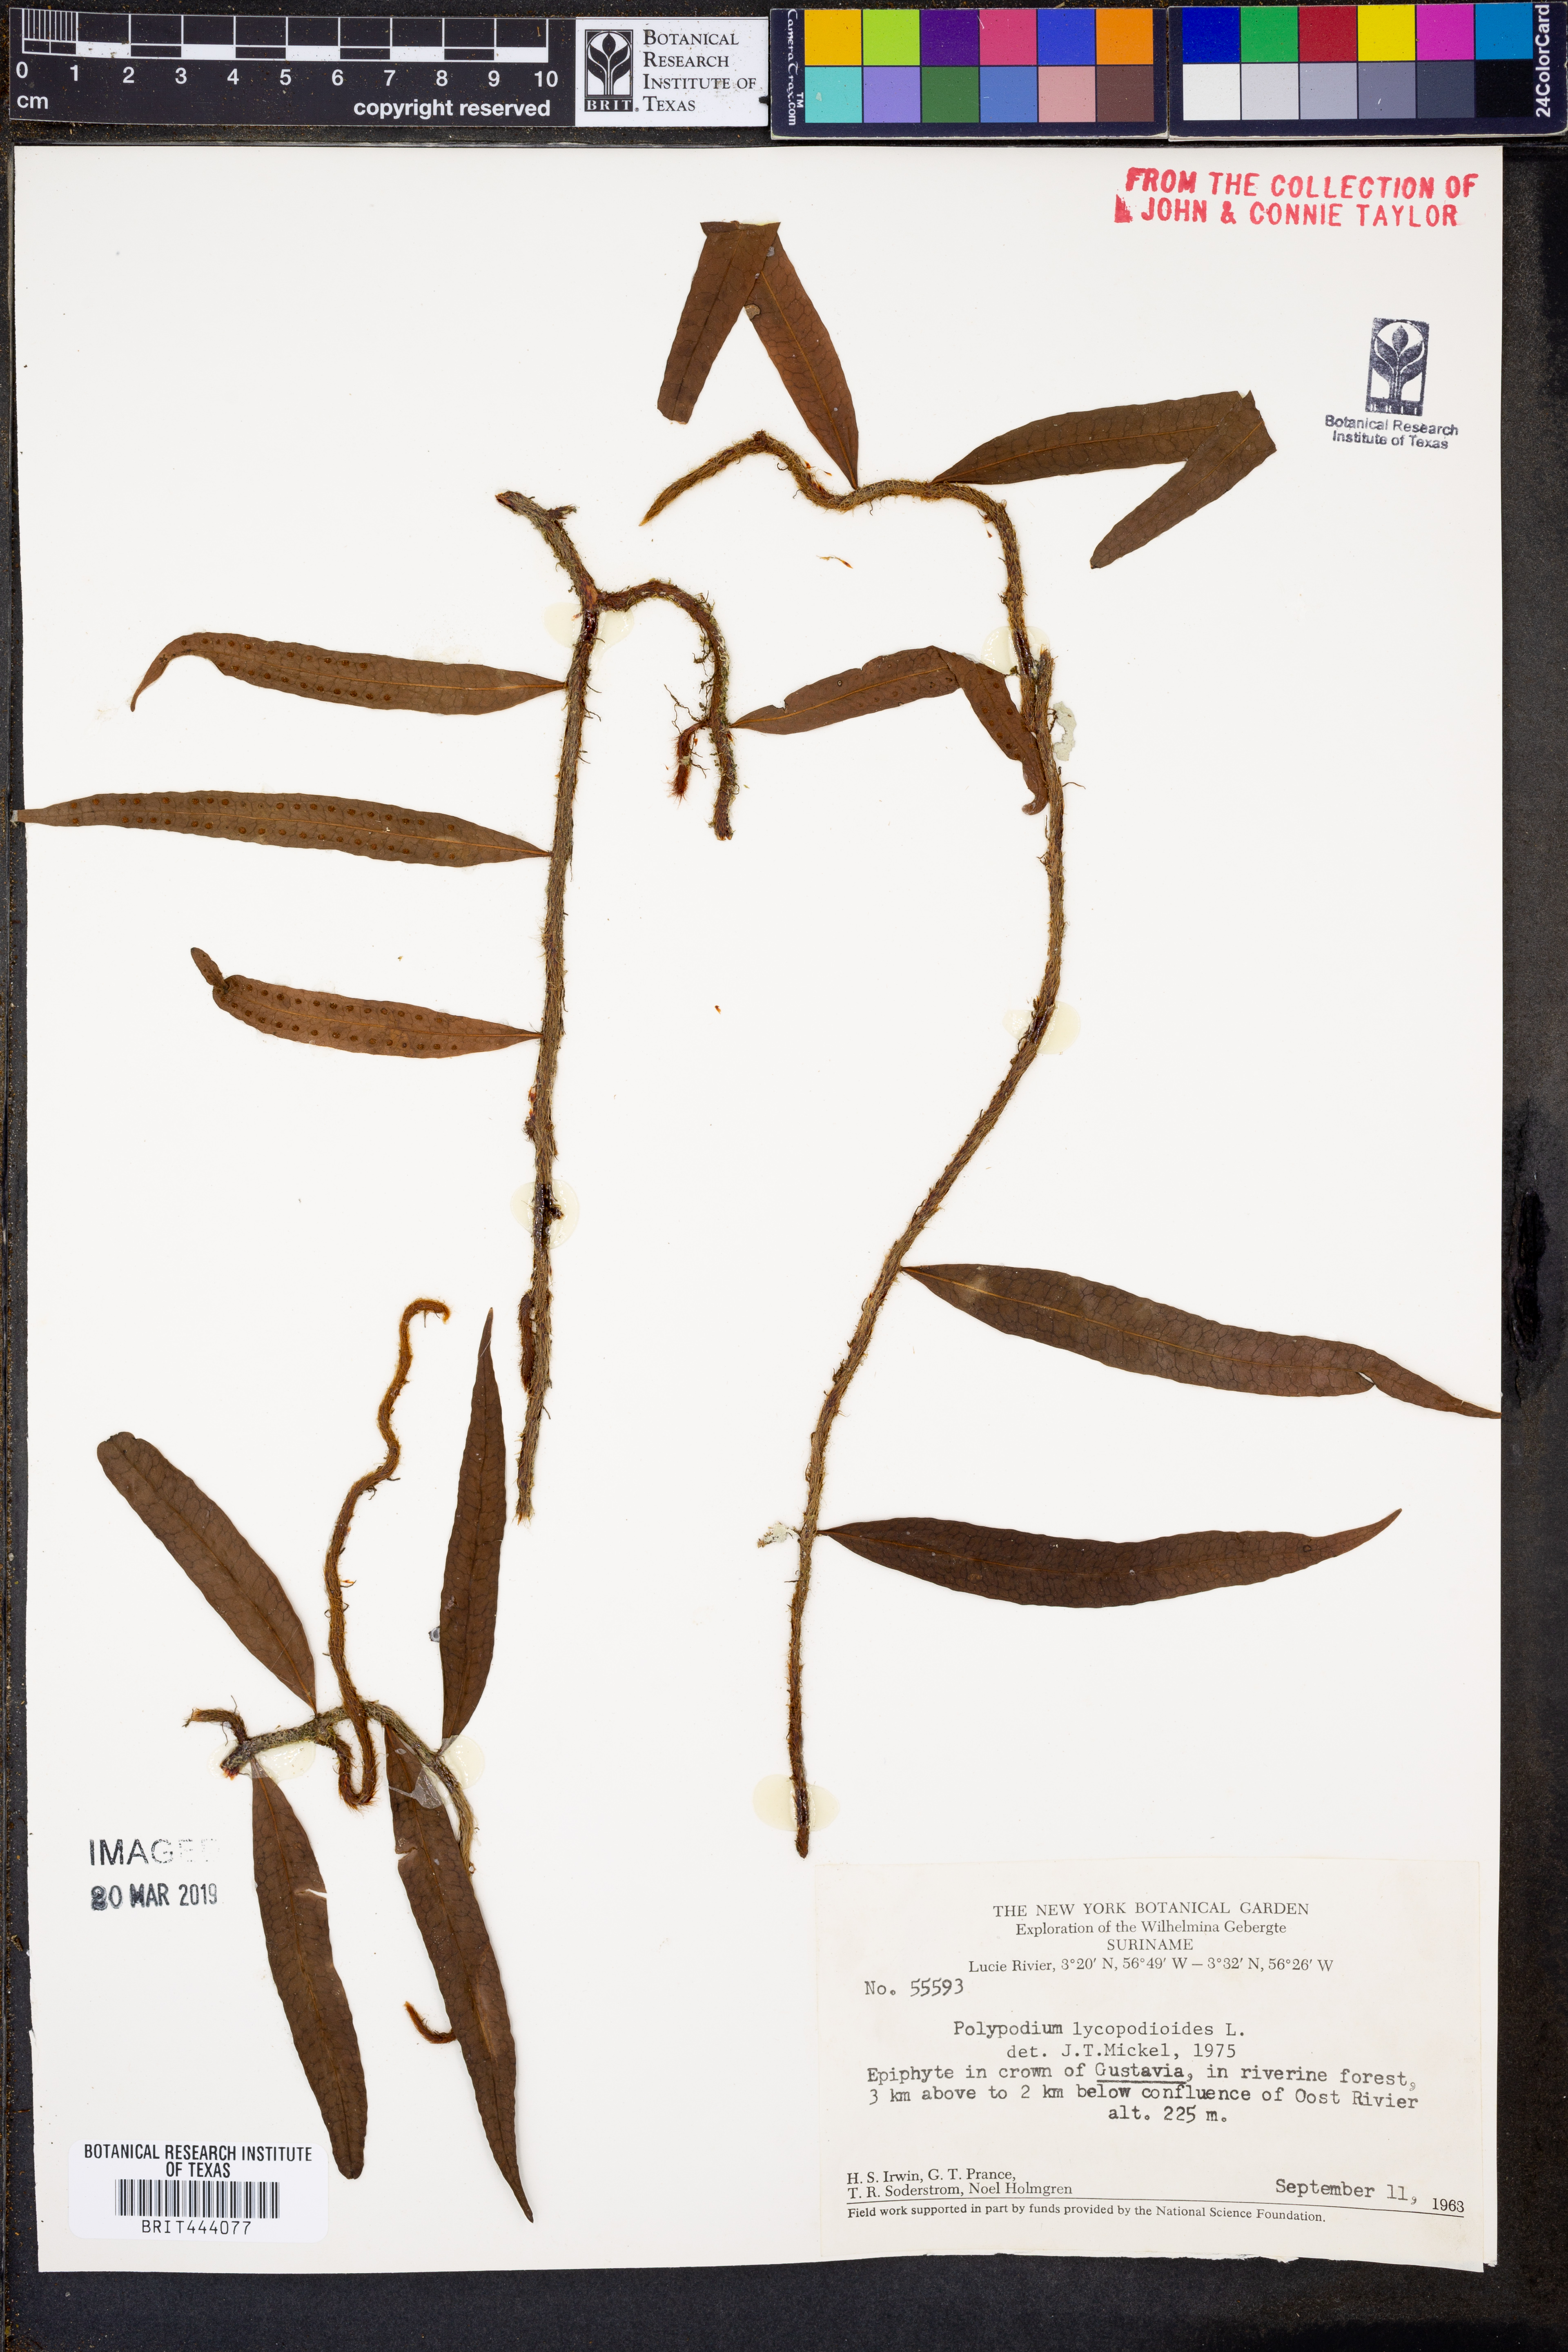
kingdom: Plantae
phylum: Tracheophyta
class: Polypodiopsida
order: Polypodiales
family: Polypodiaceae
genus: Microgramma
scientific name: Microgramma lycopodioides
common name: Bastard catclaw
